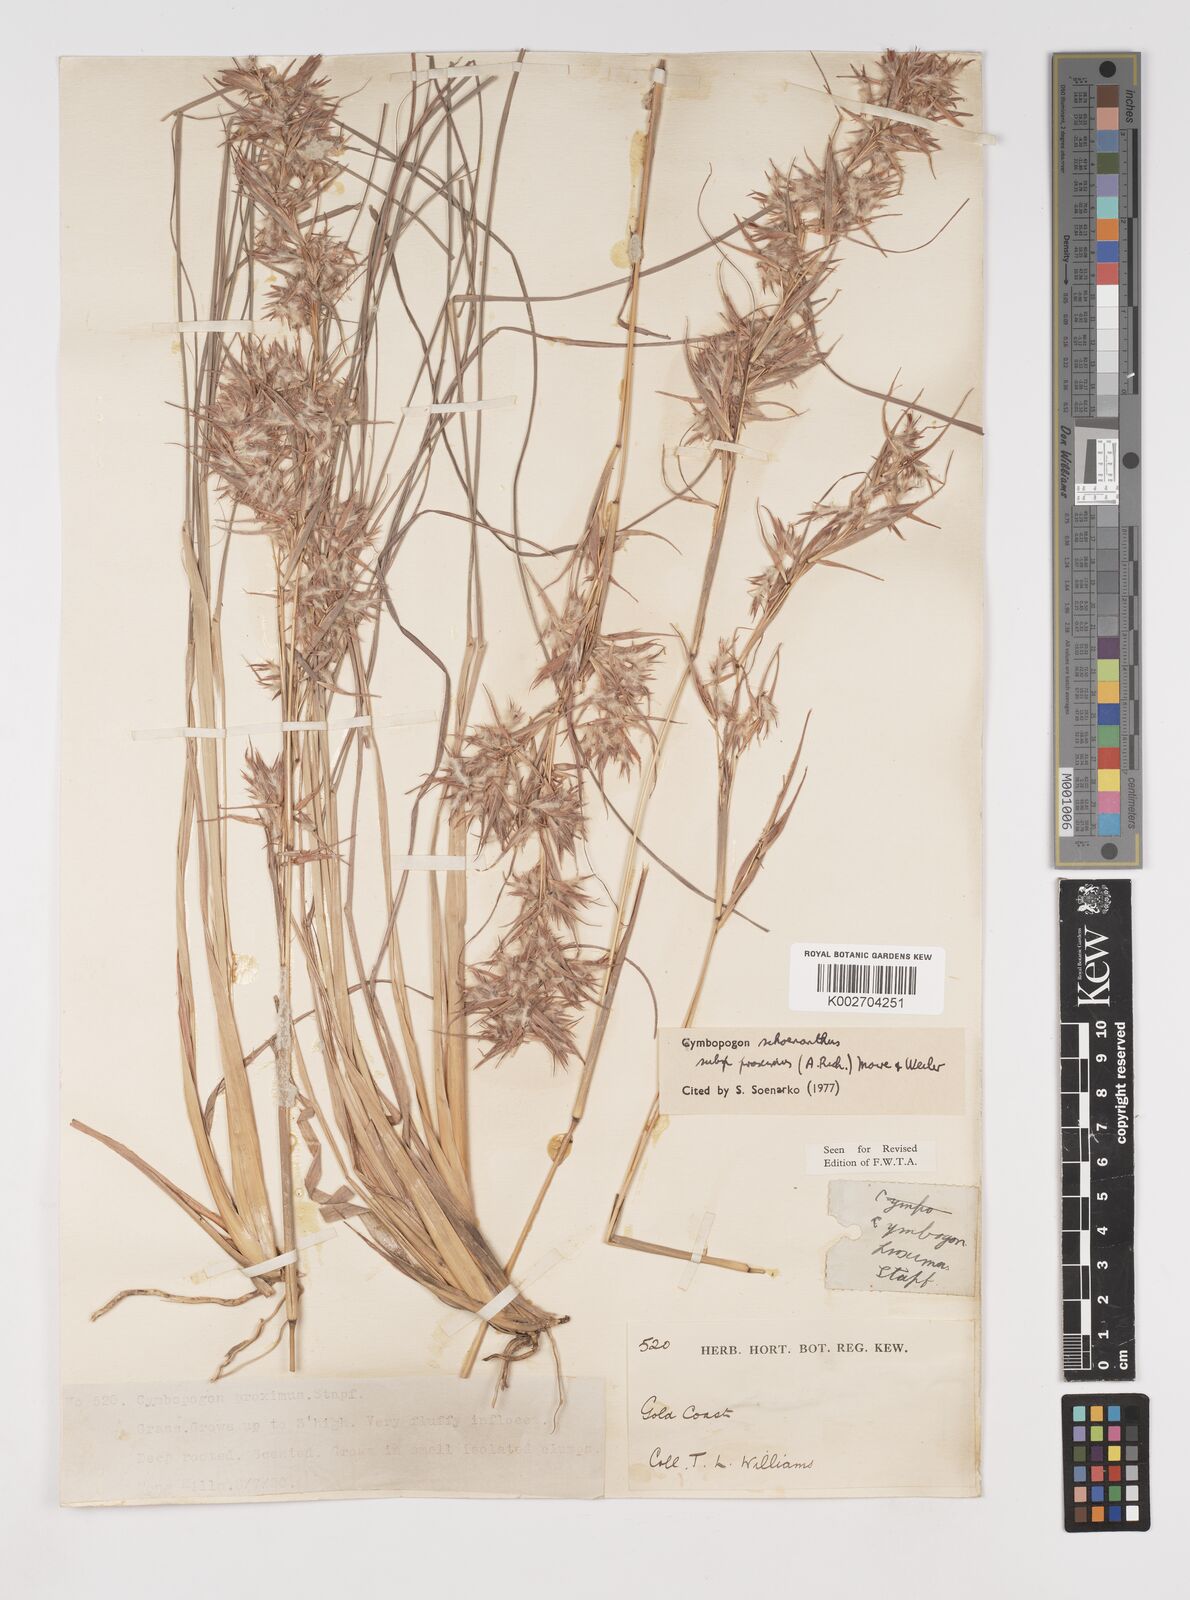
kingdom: Plantae
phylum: Tracheophyta
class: Liliopsida
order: Poales
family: Poaceae
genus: Cymbopogon
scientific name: Cymbopogon schoenanthus
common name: Geranium grass
